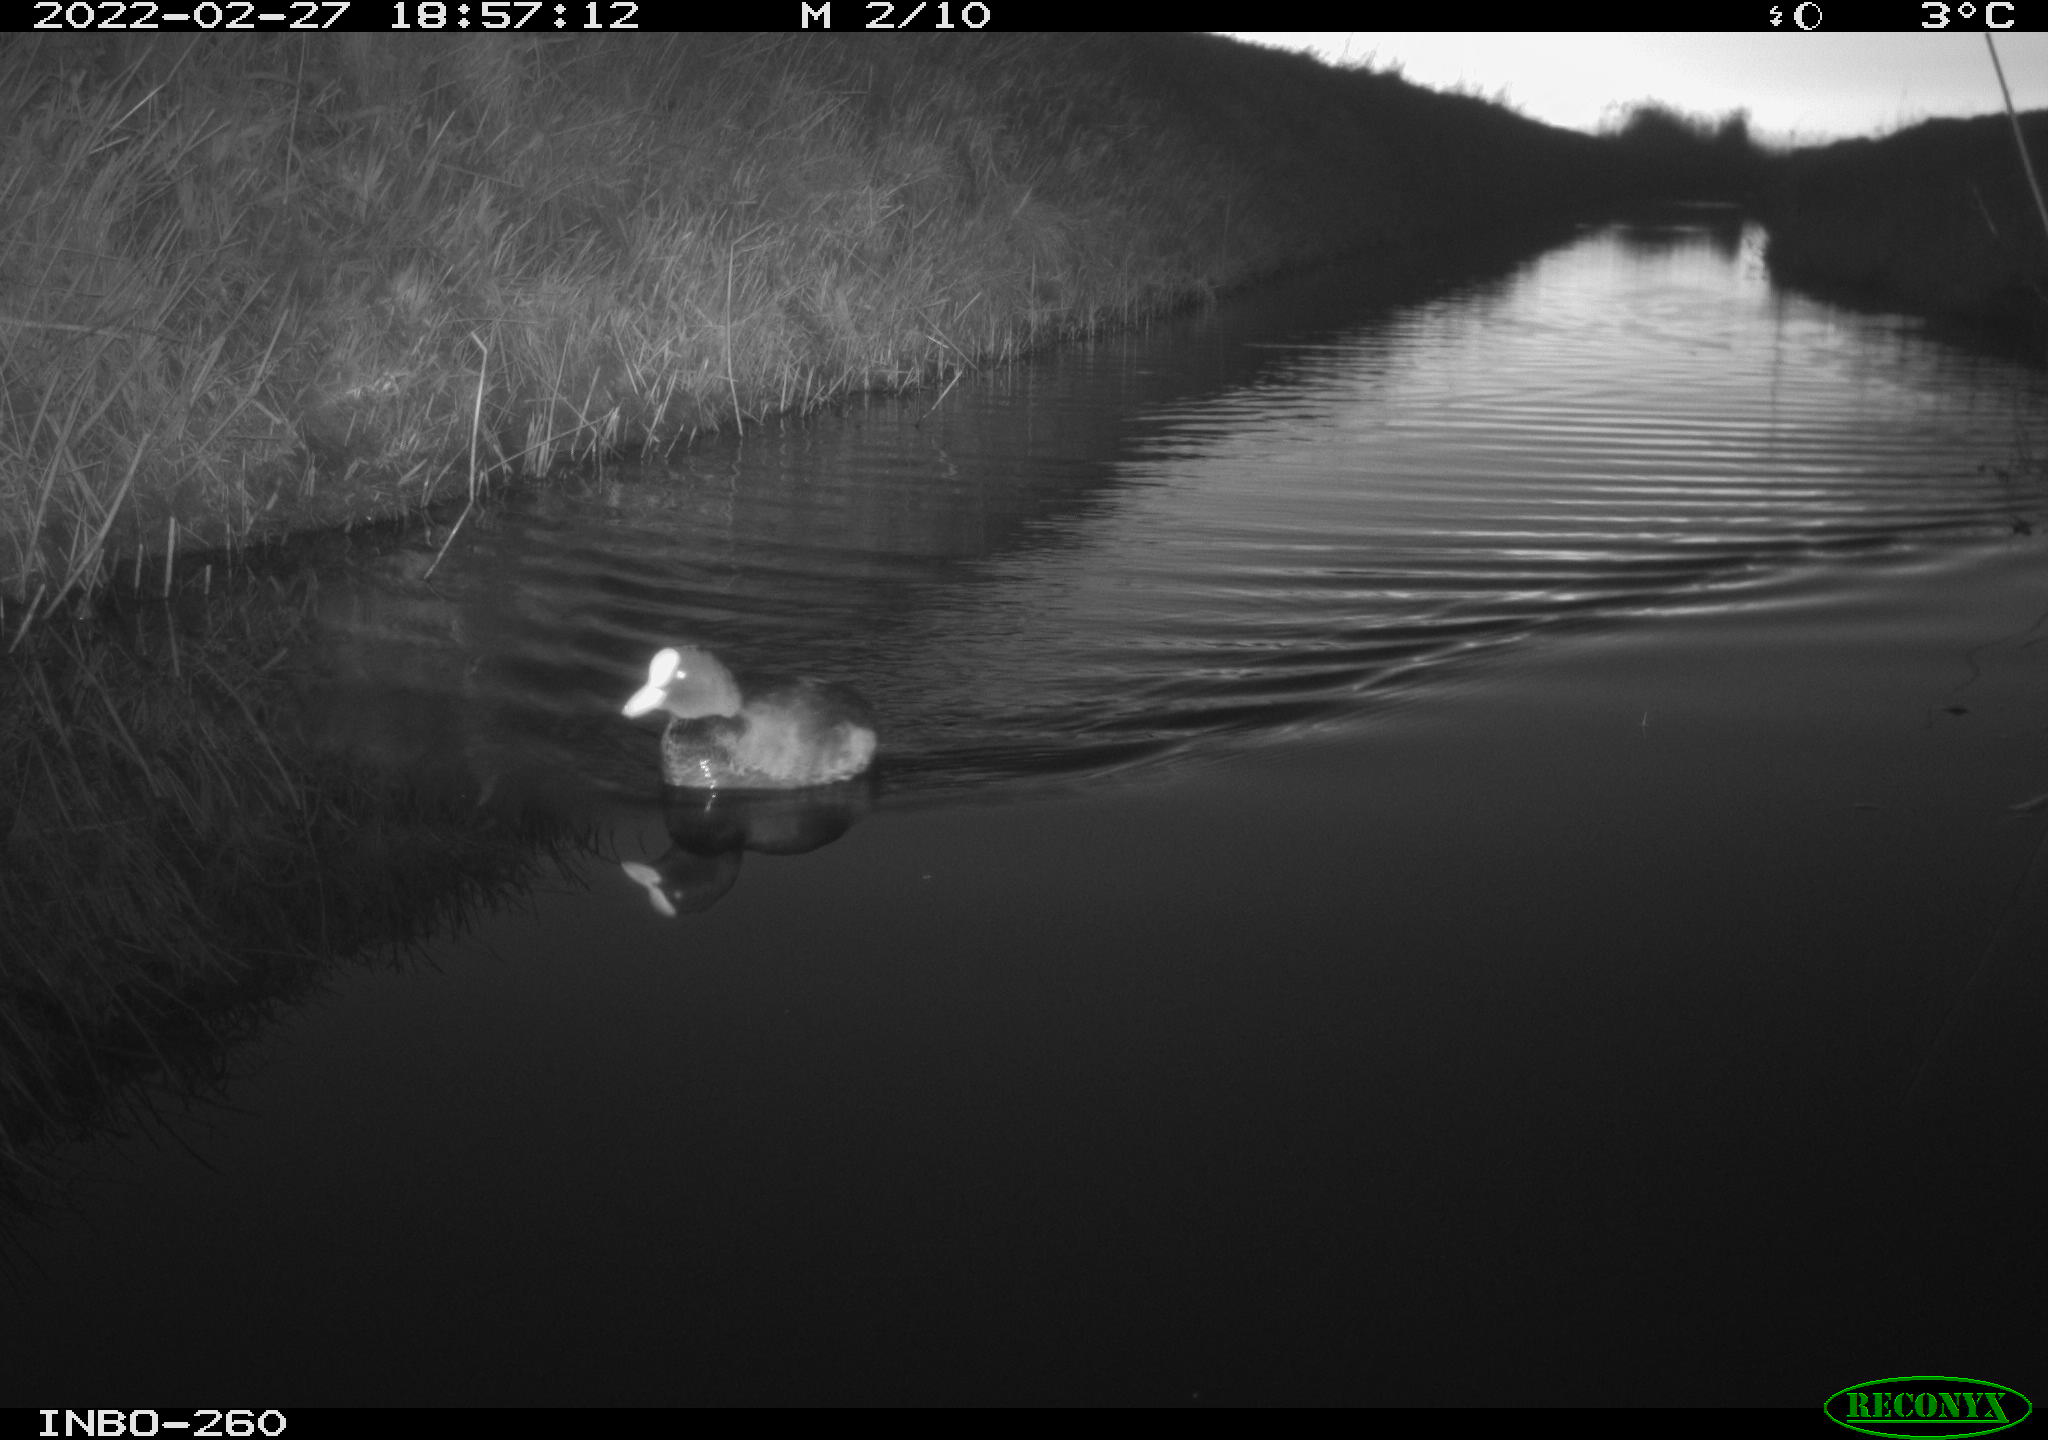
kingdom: Animalia
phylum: Chordata
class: Aves
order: Gruiformes
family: Rallidae
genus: Fulica
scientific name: Fulica atra
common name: Eurasian coot
